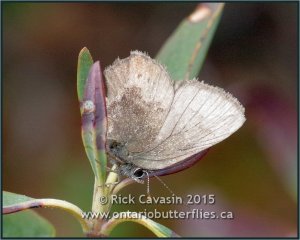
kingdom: Animalia
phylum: Arthropoda
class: Insecta
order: Lepidoptera
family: Lycaenidae
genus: Incisalia
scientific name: Incisalia irioides
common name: Brown Elfin
